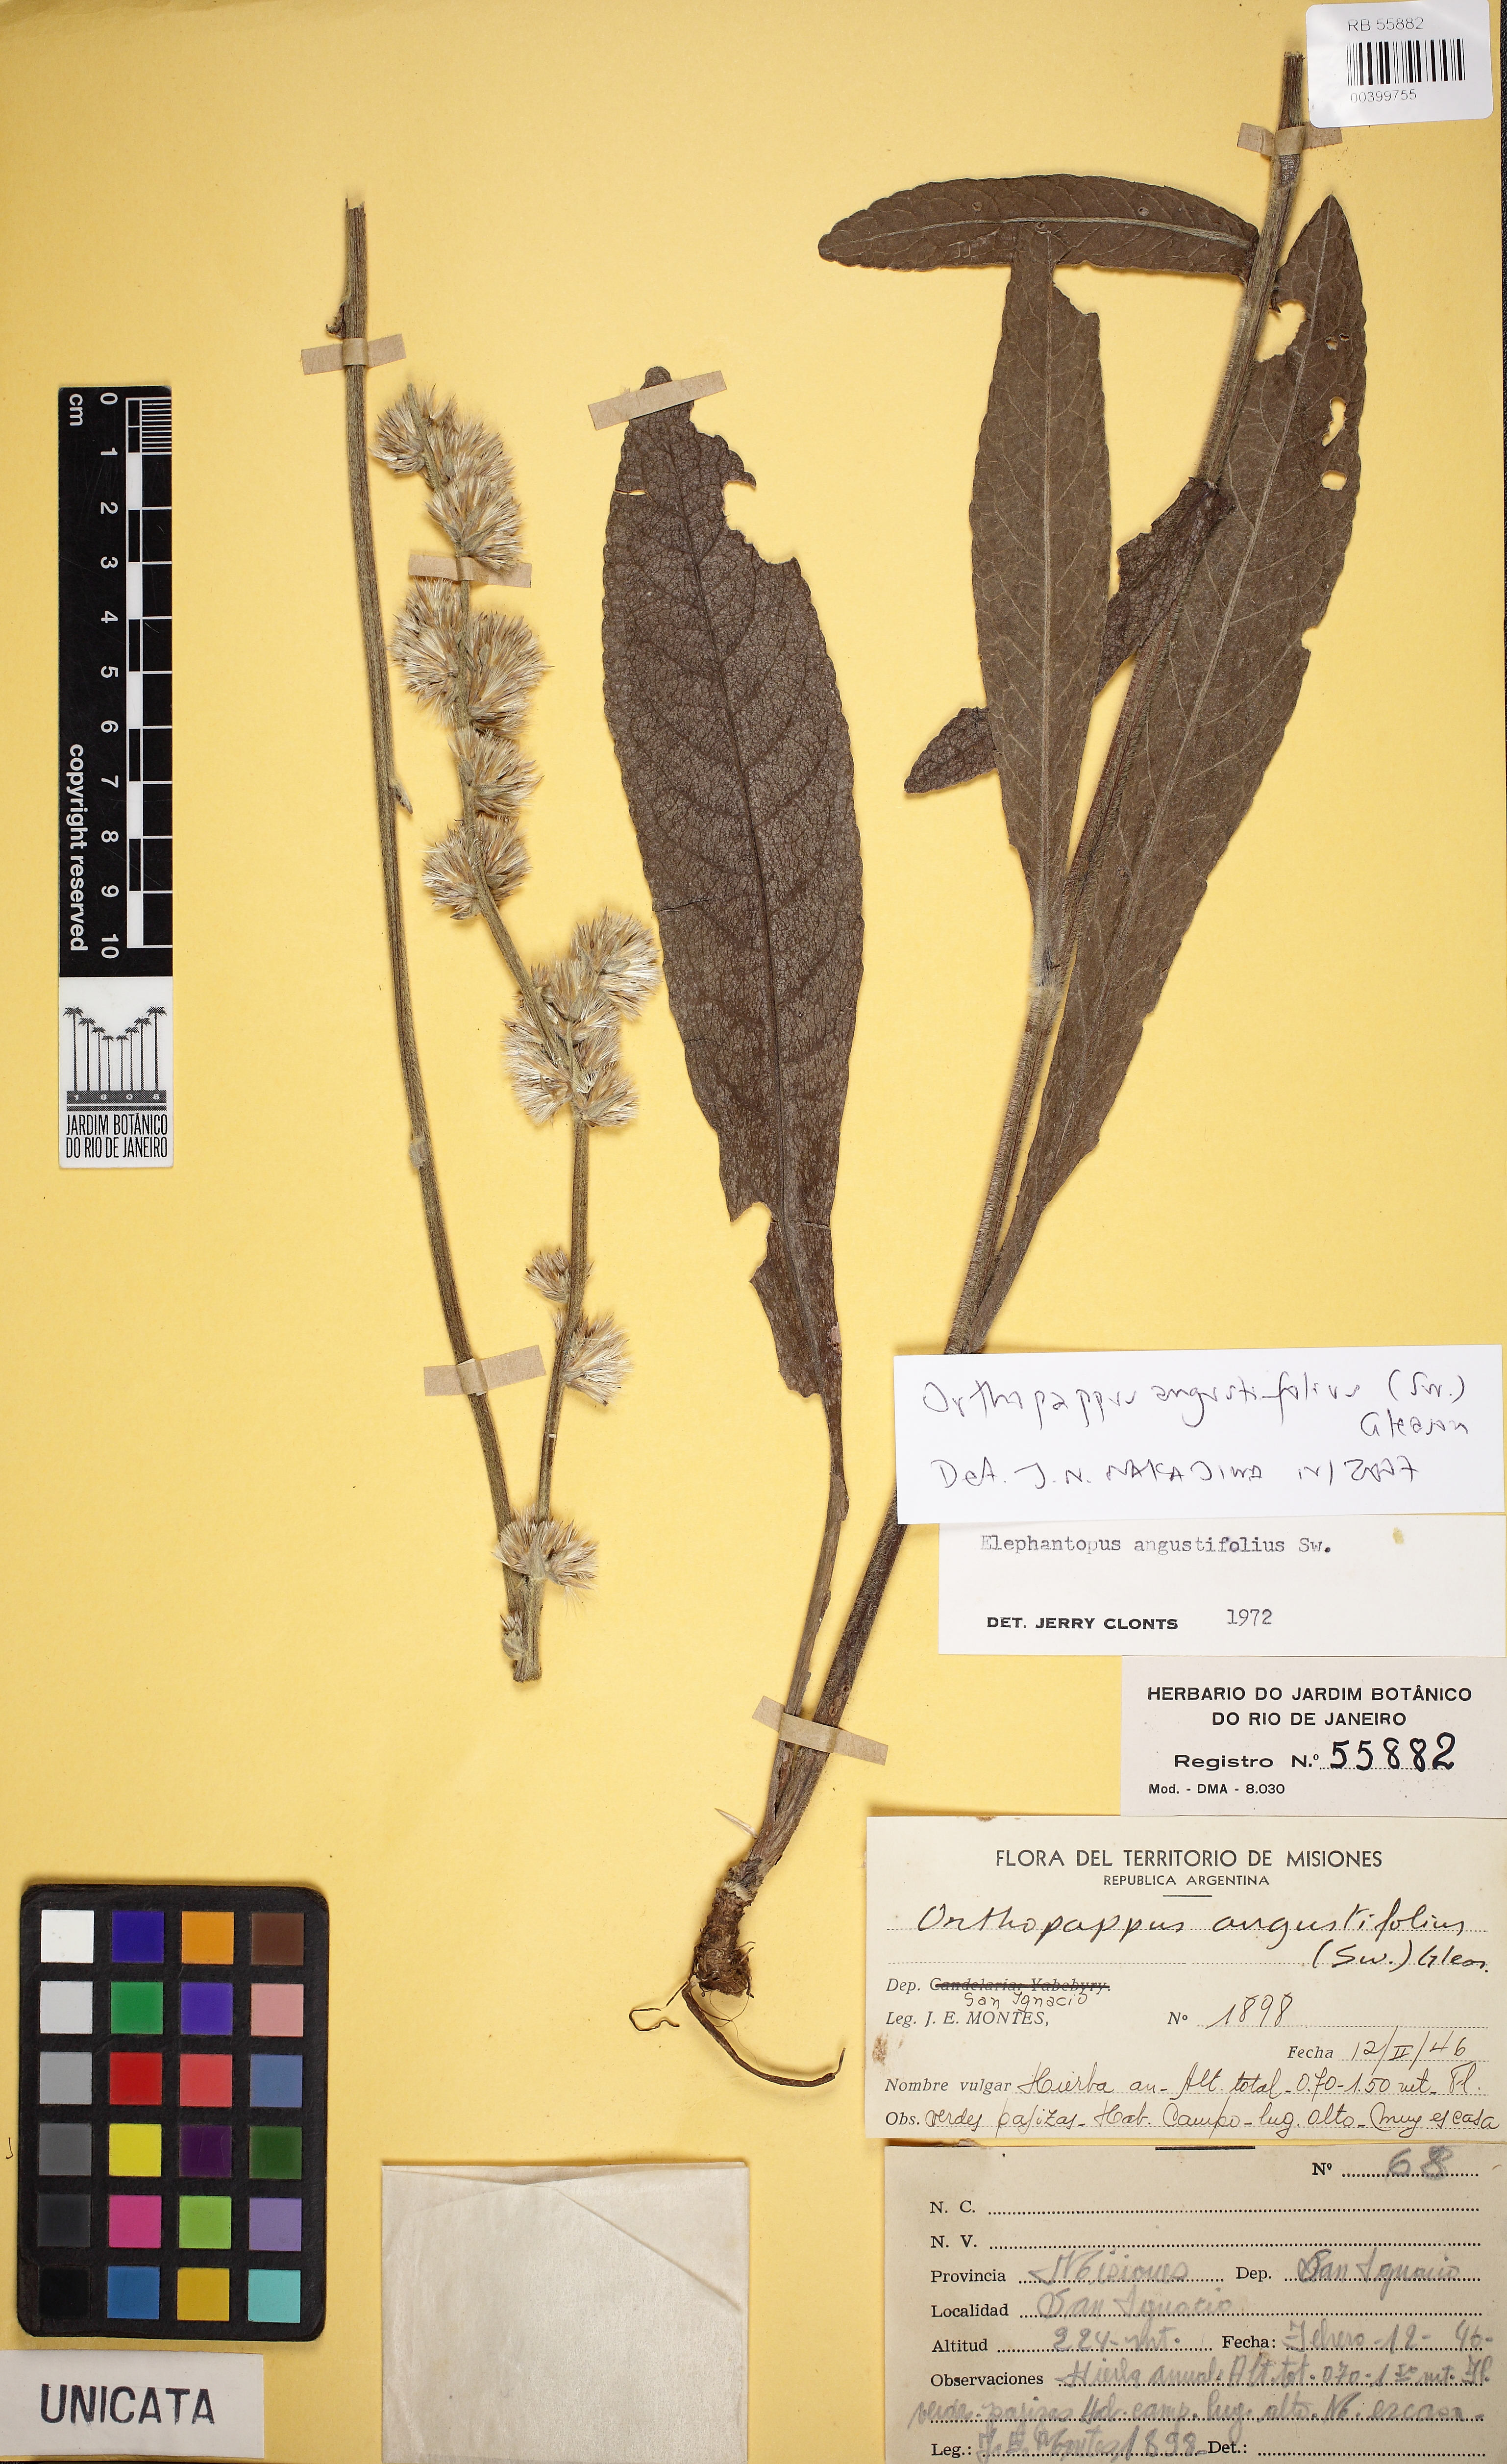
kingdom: Plantae
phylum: Tracheophyta
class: Magnoliopsida
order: Asterales
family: Asteraceae
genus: Orthopappus
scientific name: Orthopappus angustifolius
